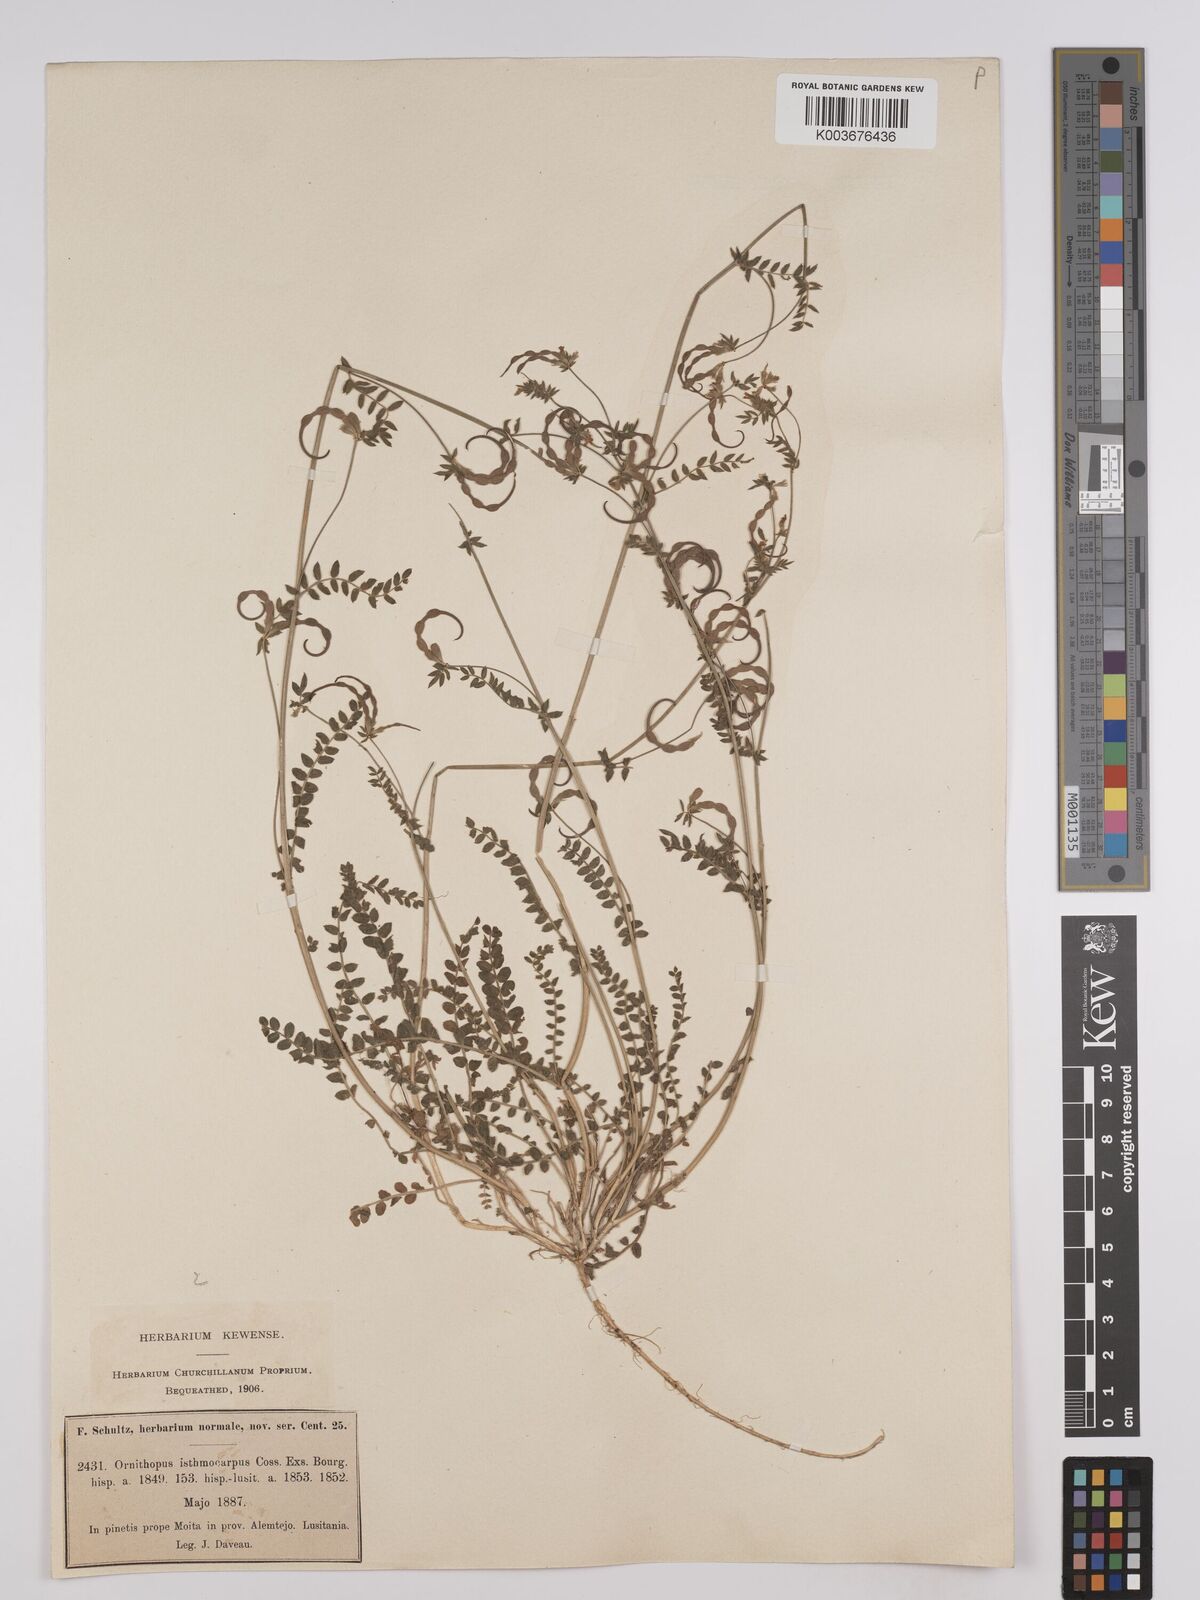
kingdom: Plantae
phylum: Tracheophyta
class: Magnoliopsida
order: Fabales
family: Fabaceae
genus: Ornithopus
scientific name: Ornithopus sativus
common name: Serradella
